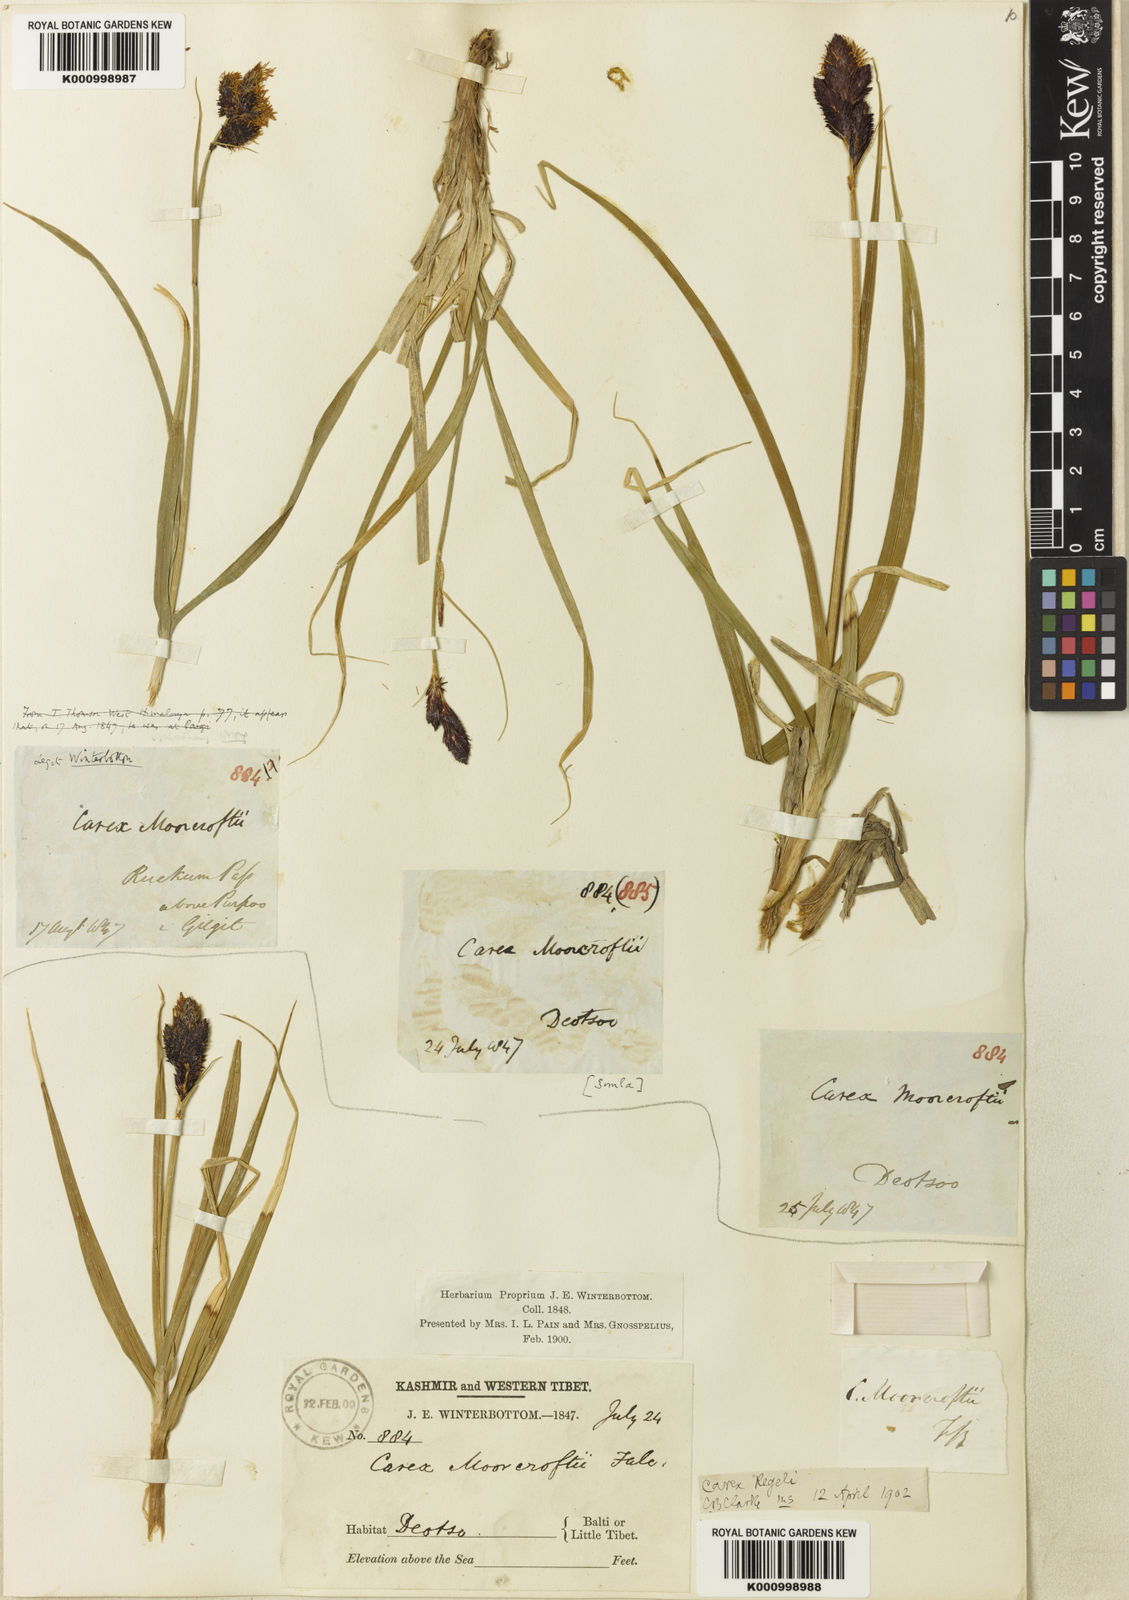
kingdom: Plantae
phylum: Tracheophyta
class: Liliopsida
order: Poales
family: Cyperaceae
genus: Carex
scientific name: Carex melanantha
